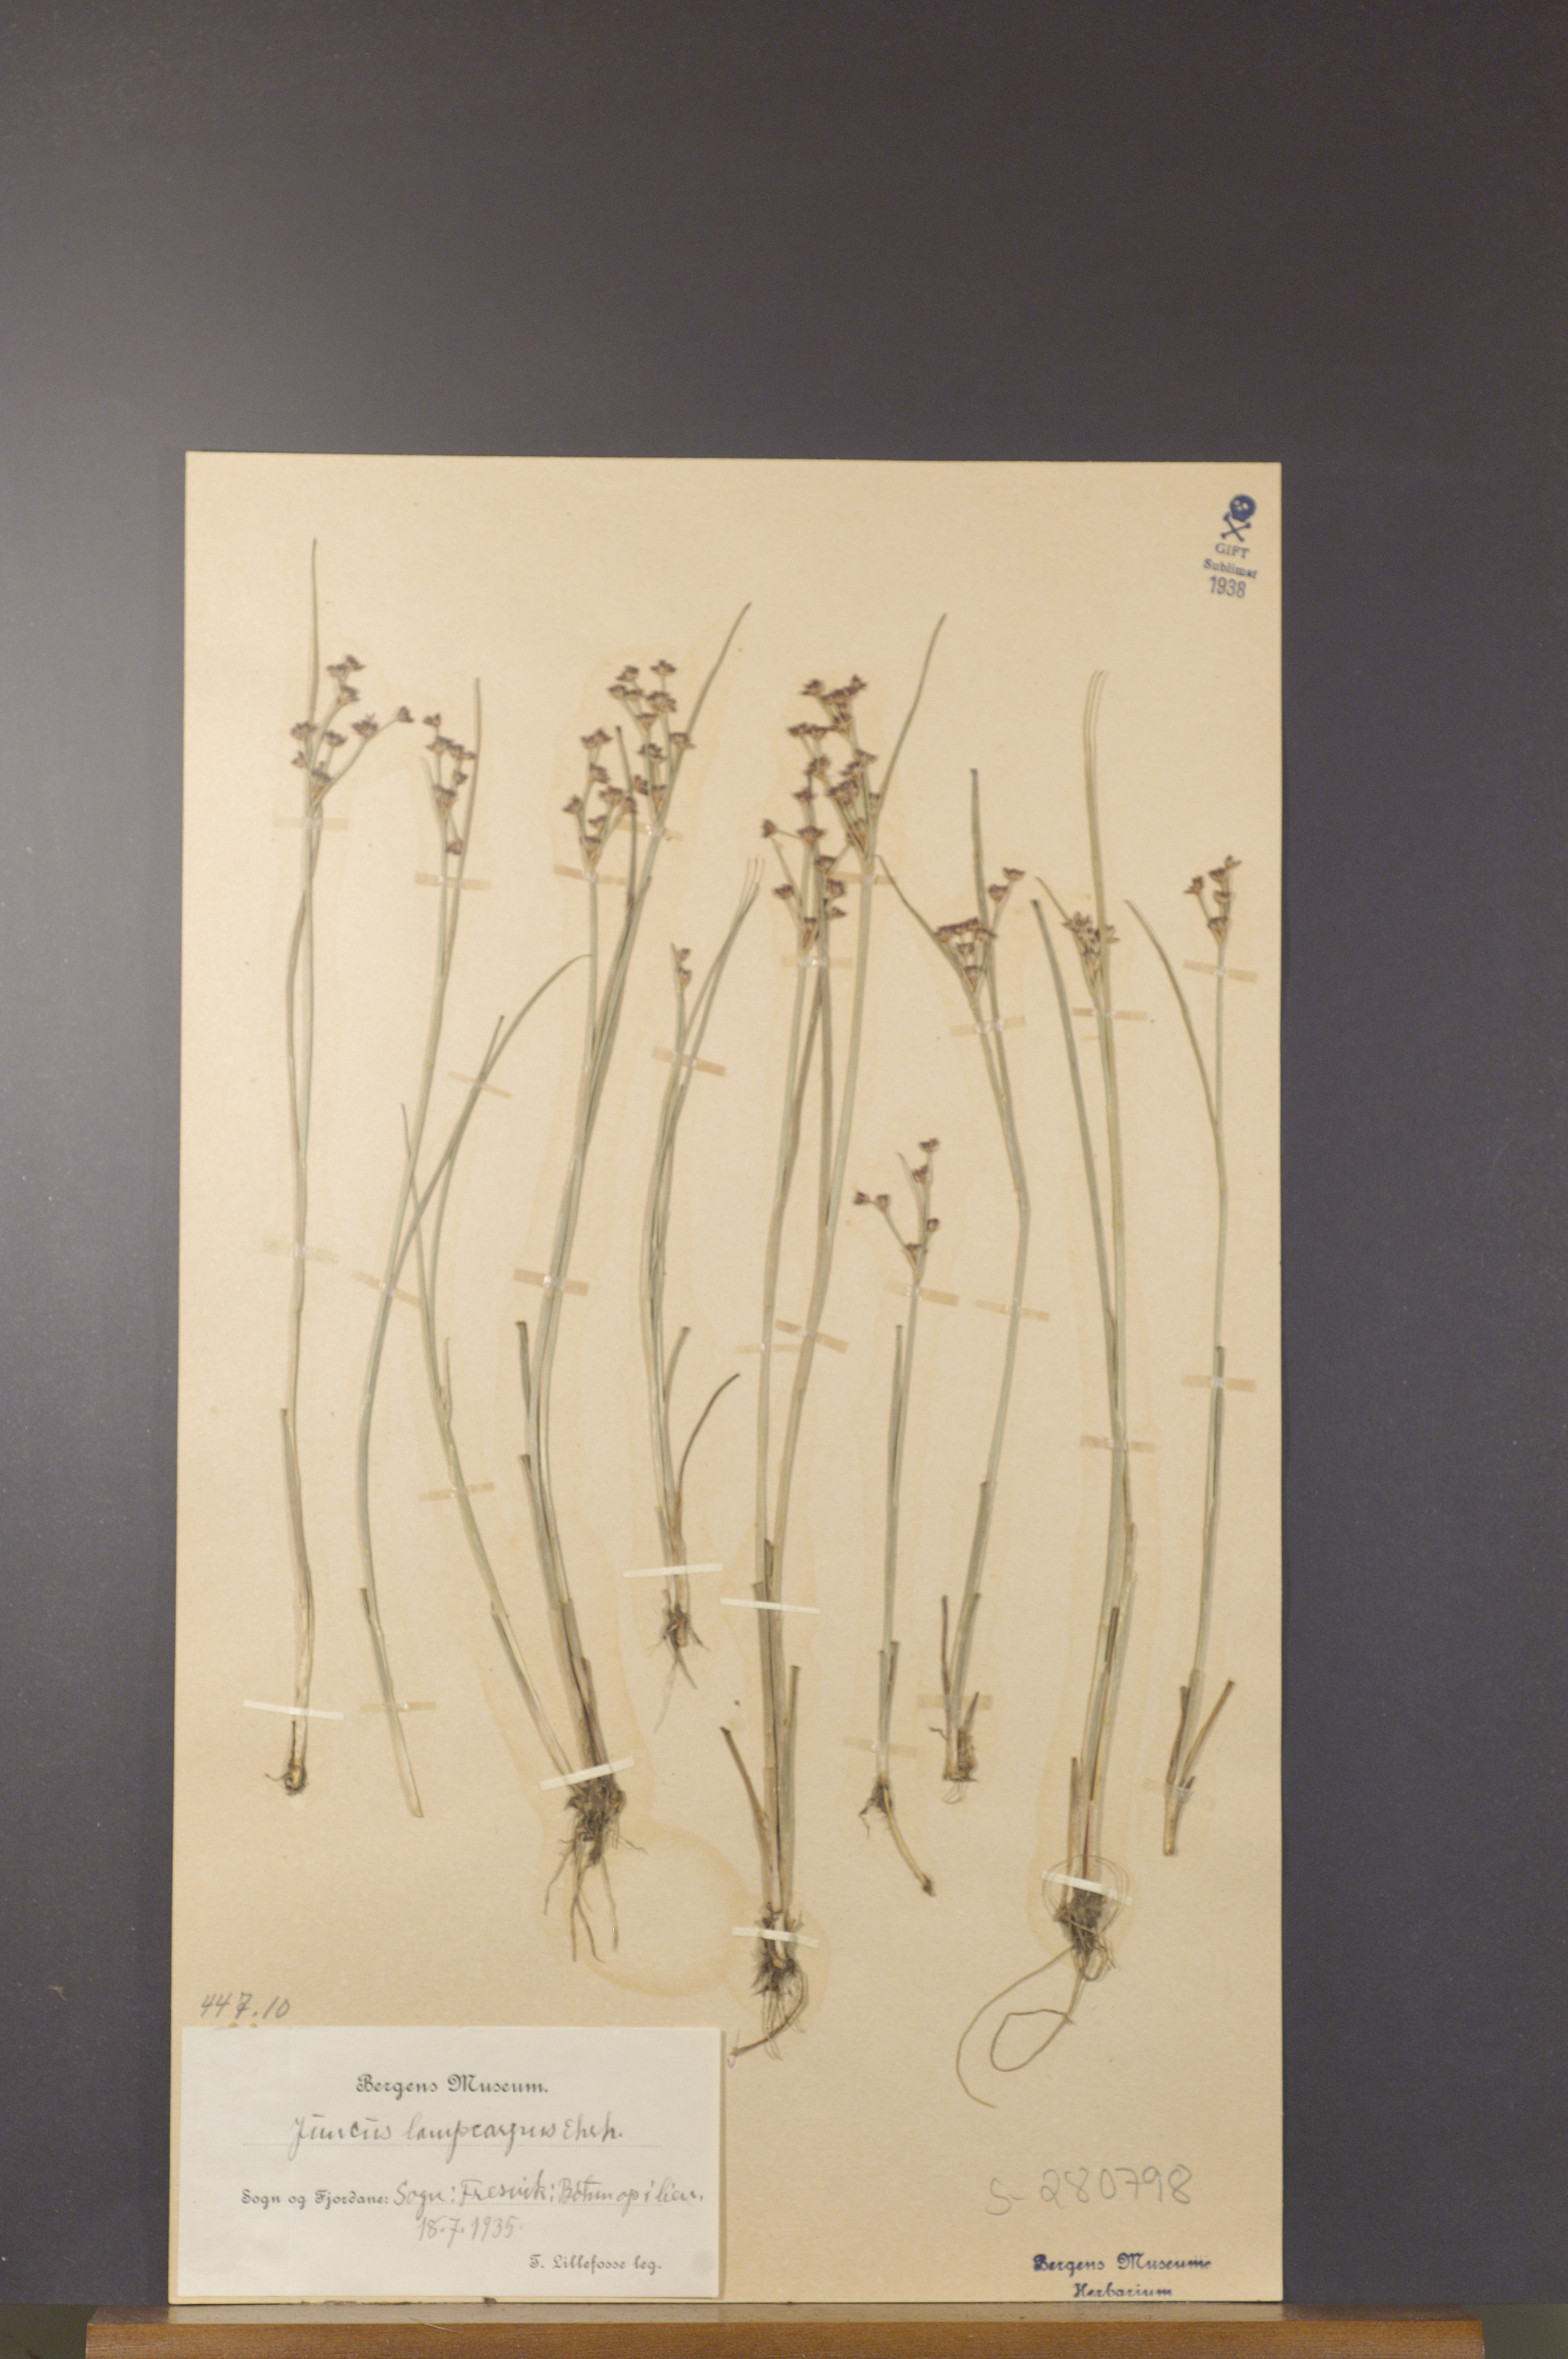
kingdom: Plantae
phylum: Tracheophyta
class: Liliopsida
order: Poales
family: Juncaceae
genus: Juncus
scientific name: Juncus articulatus
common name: Jointed rush
